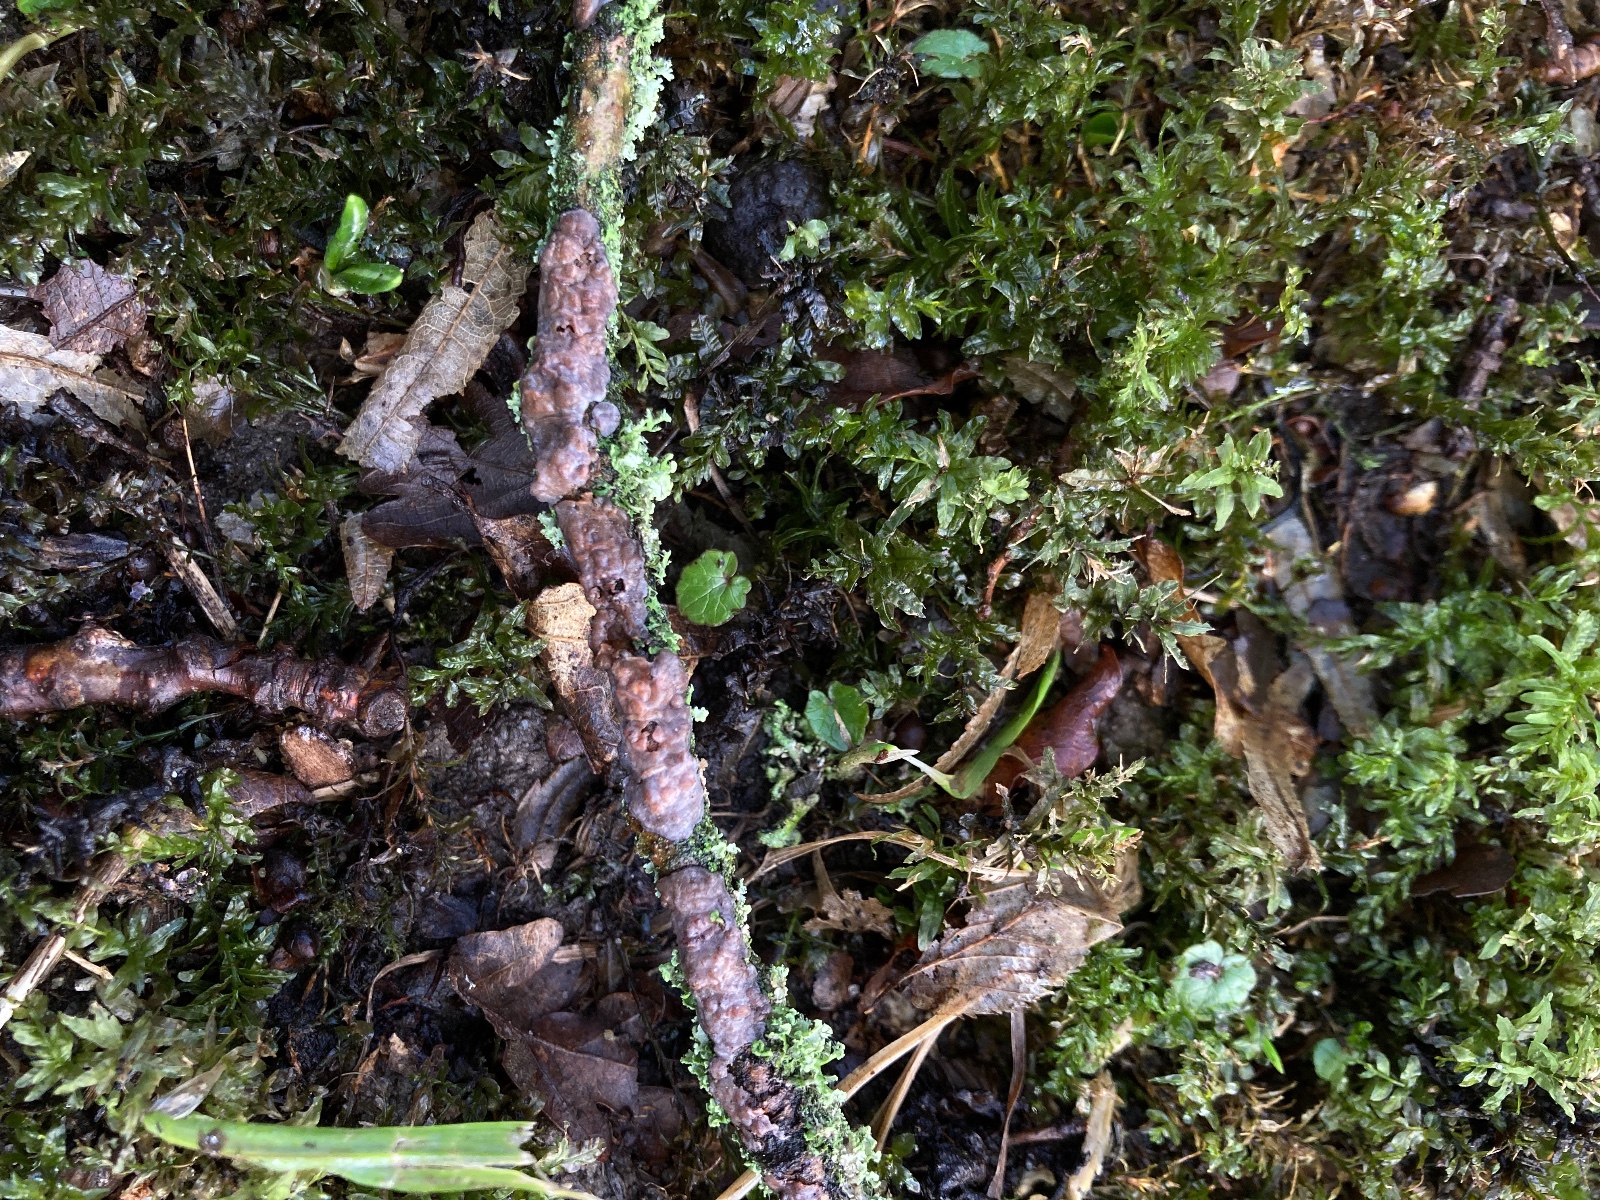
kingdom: Fungi
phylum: Basidiomycota
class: Agaricomycetes
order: Russulales
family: Peniophoraceae
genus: Peniophora
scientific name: Peniophora quercina
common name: ege-voksskind
